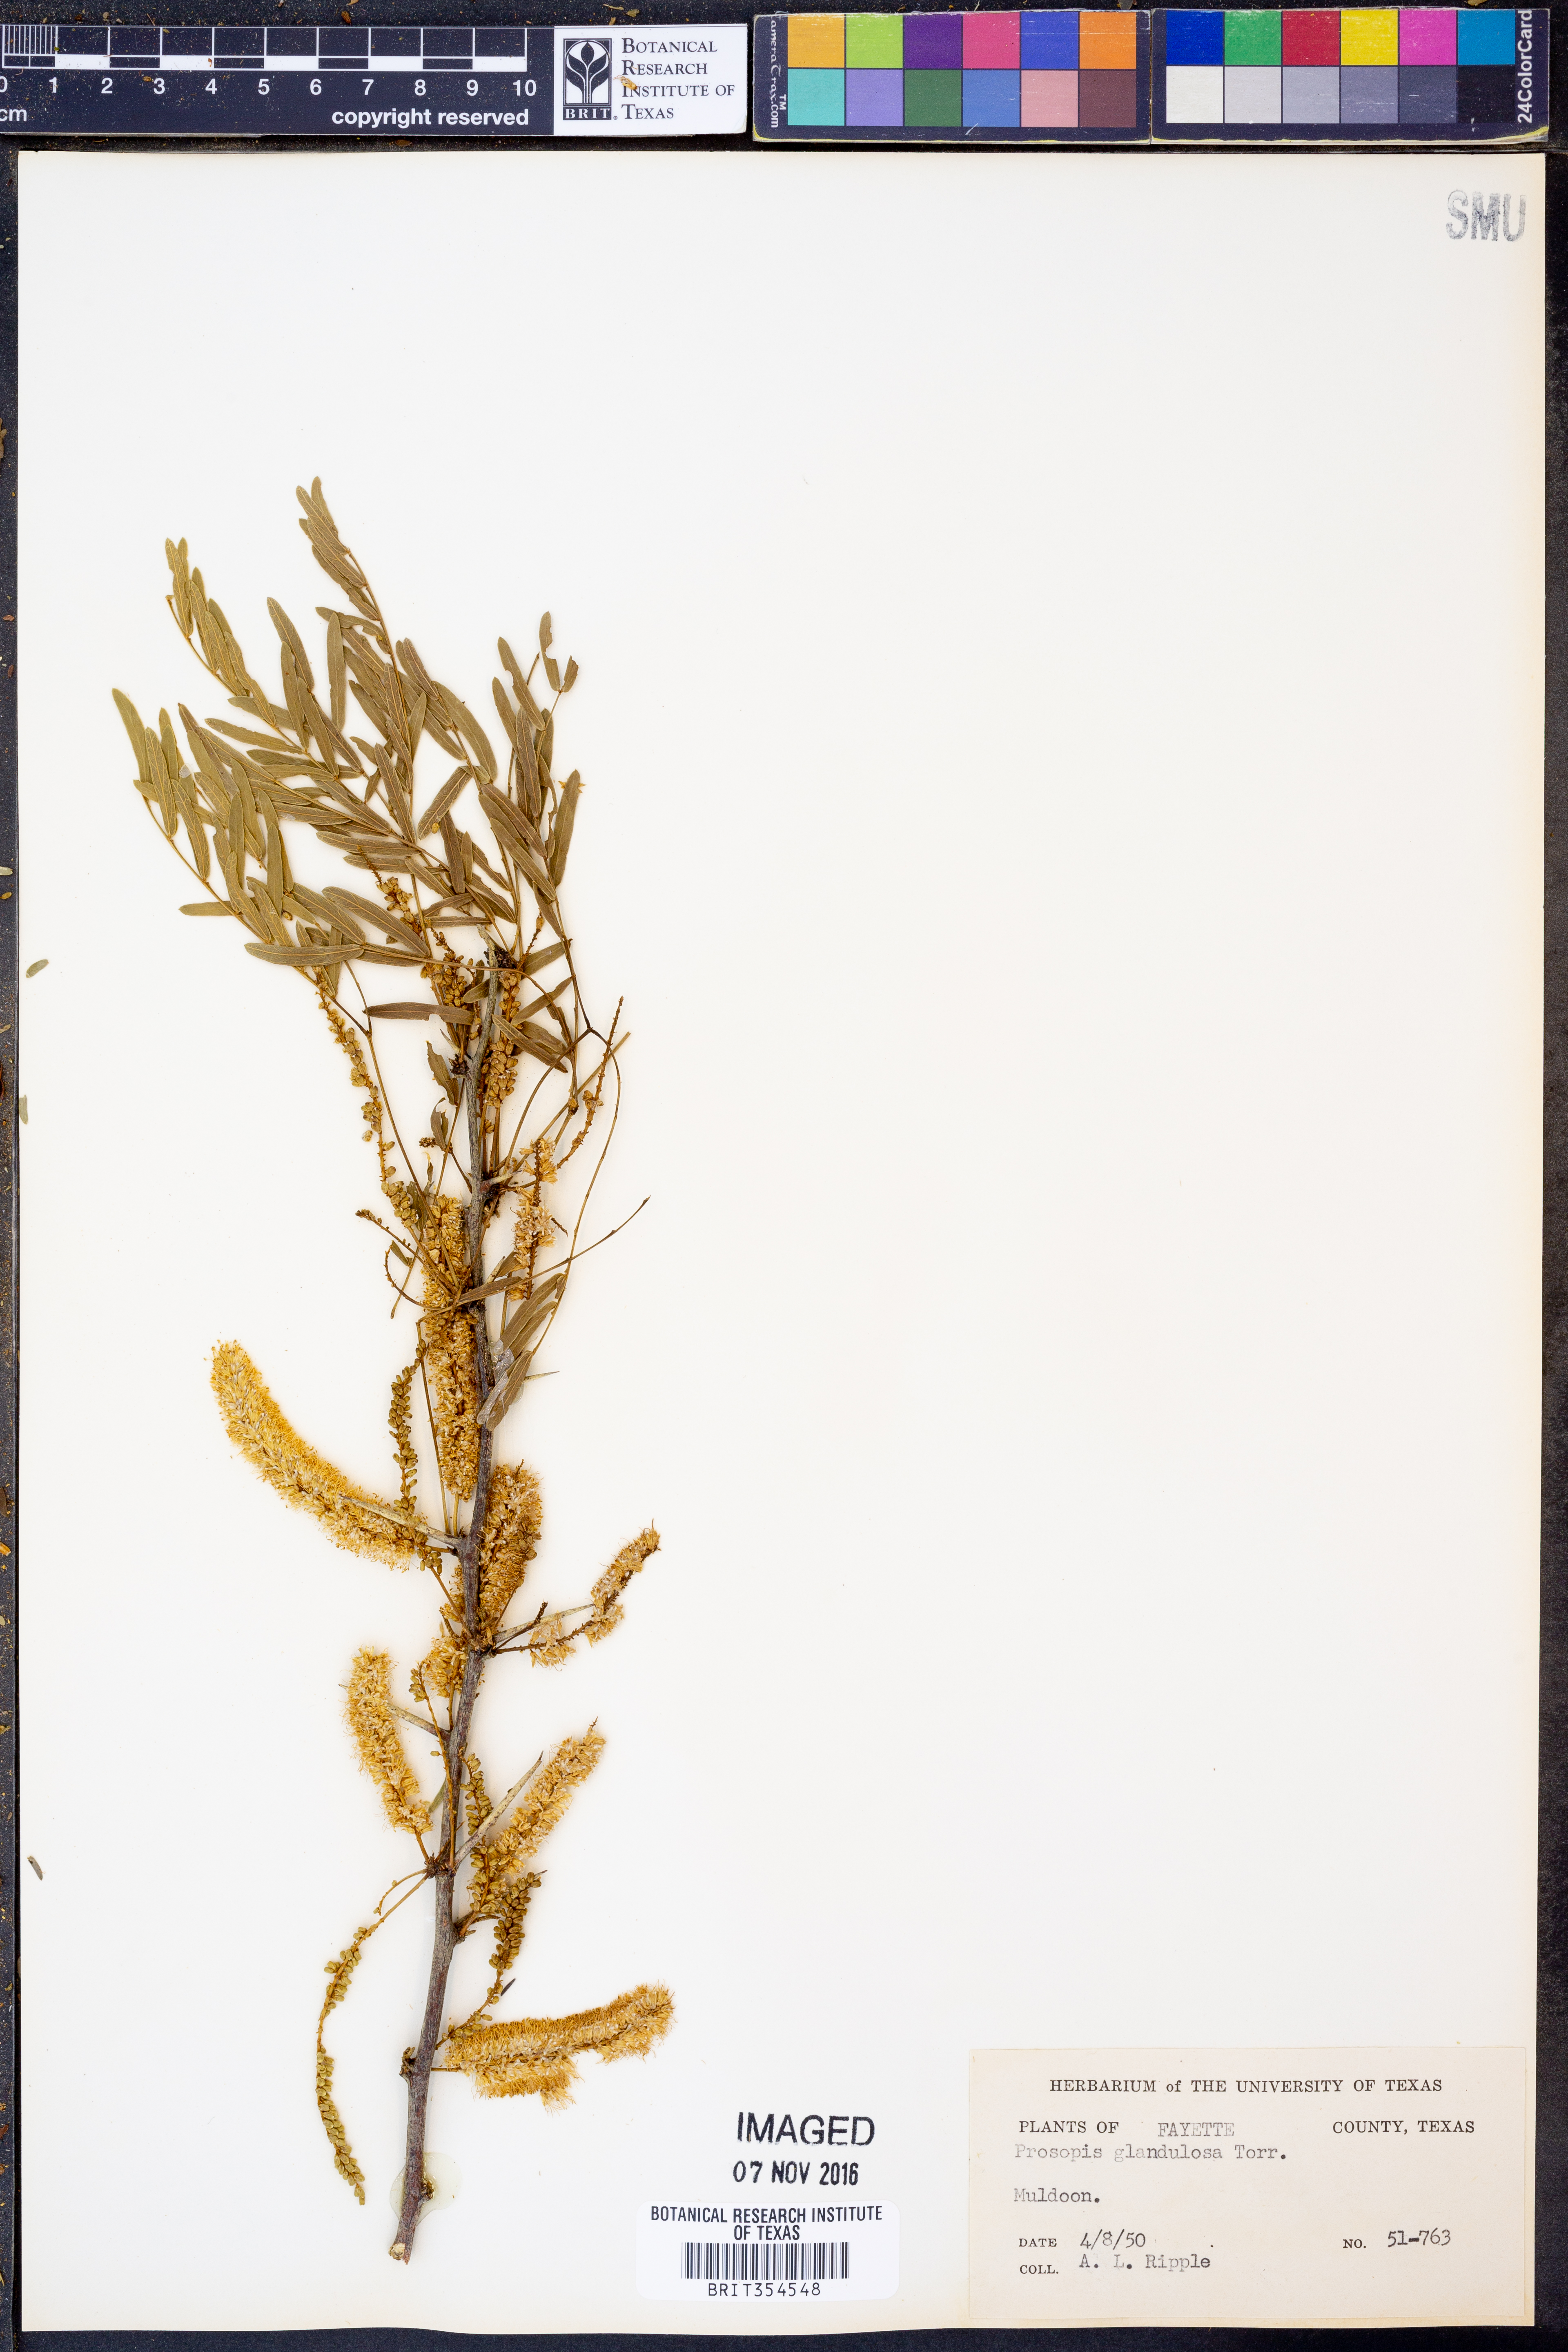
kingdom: Plantae
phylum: Tracheophyta
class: Magnoliopsida
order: Fabales
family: Fabaceae
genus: Prosopis
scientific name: Prosopis glandulosa
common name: Honey mesquite
